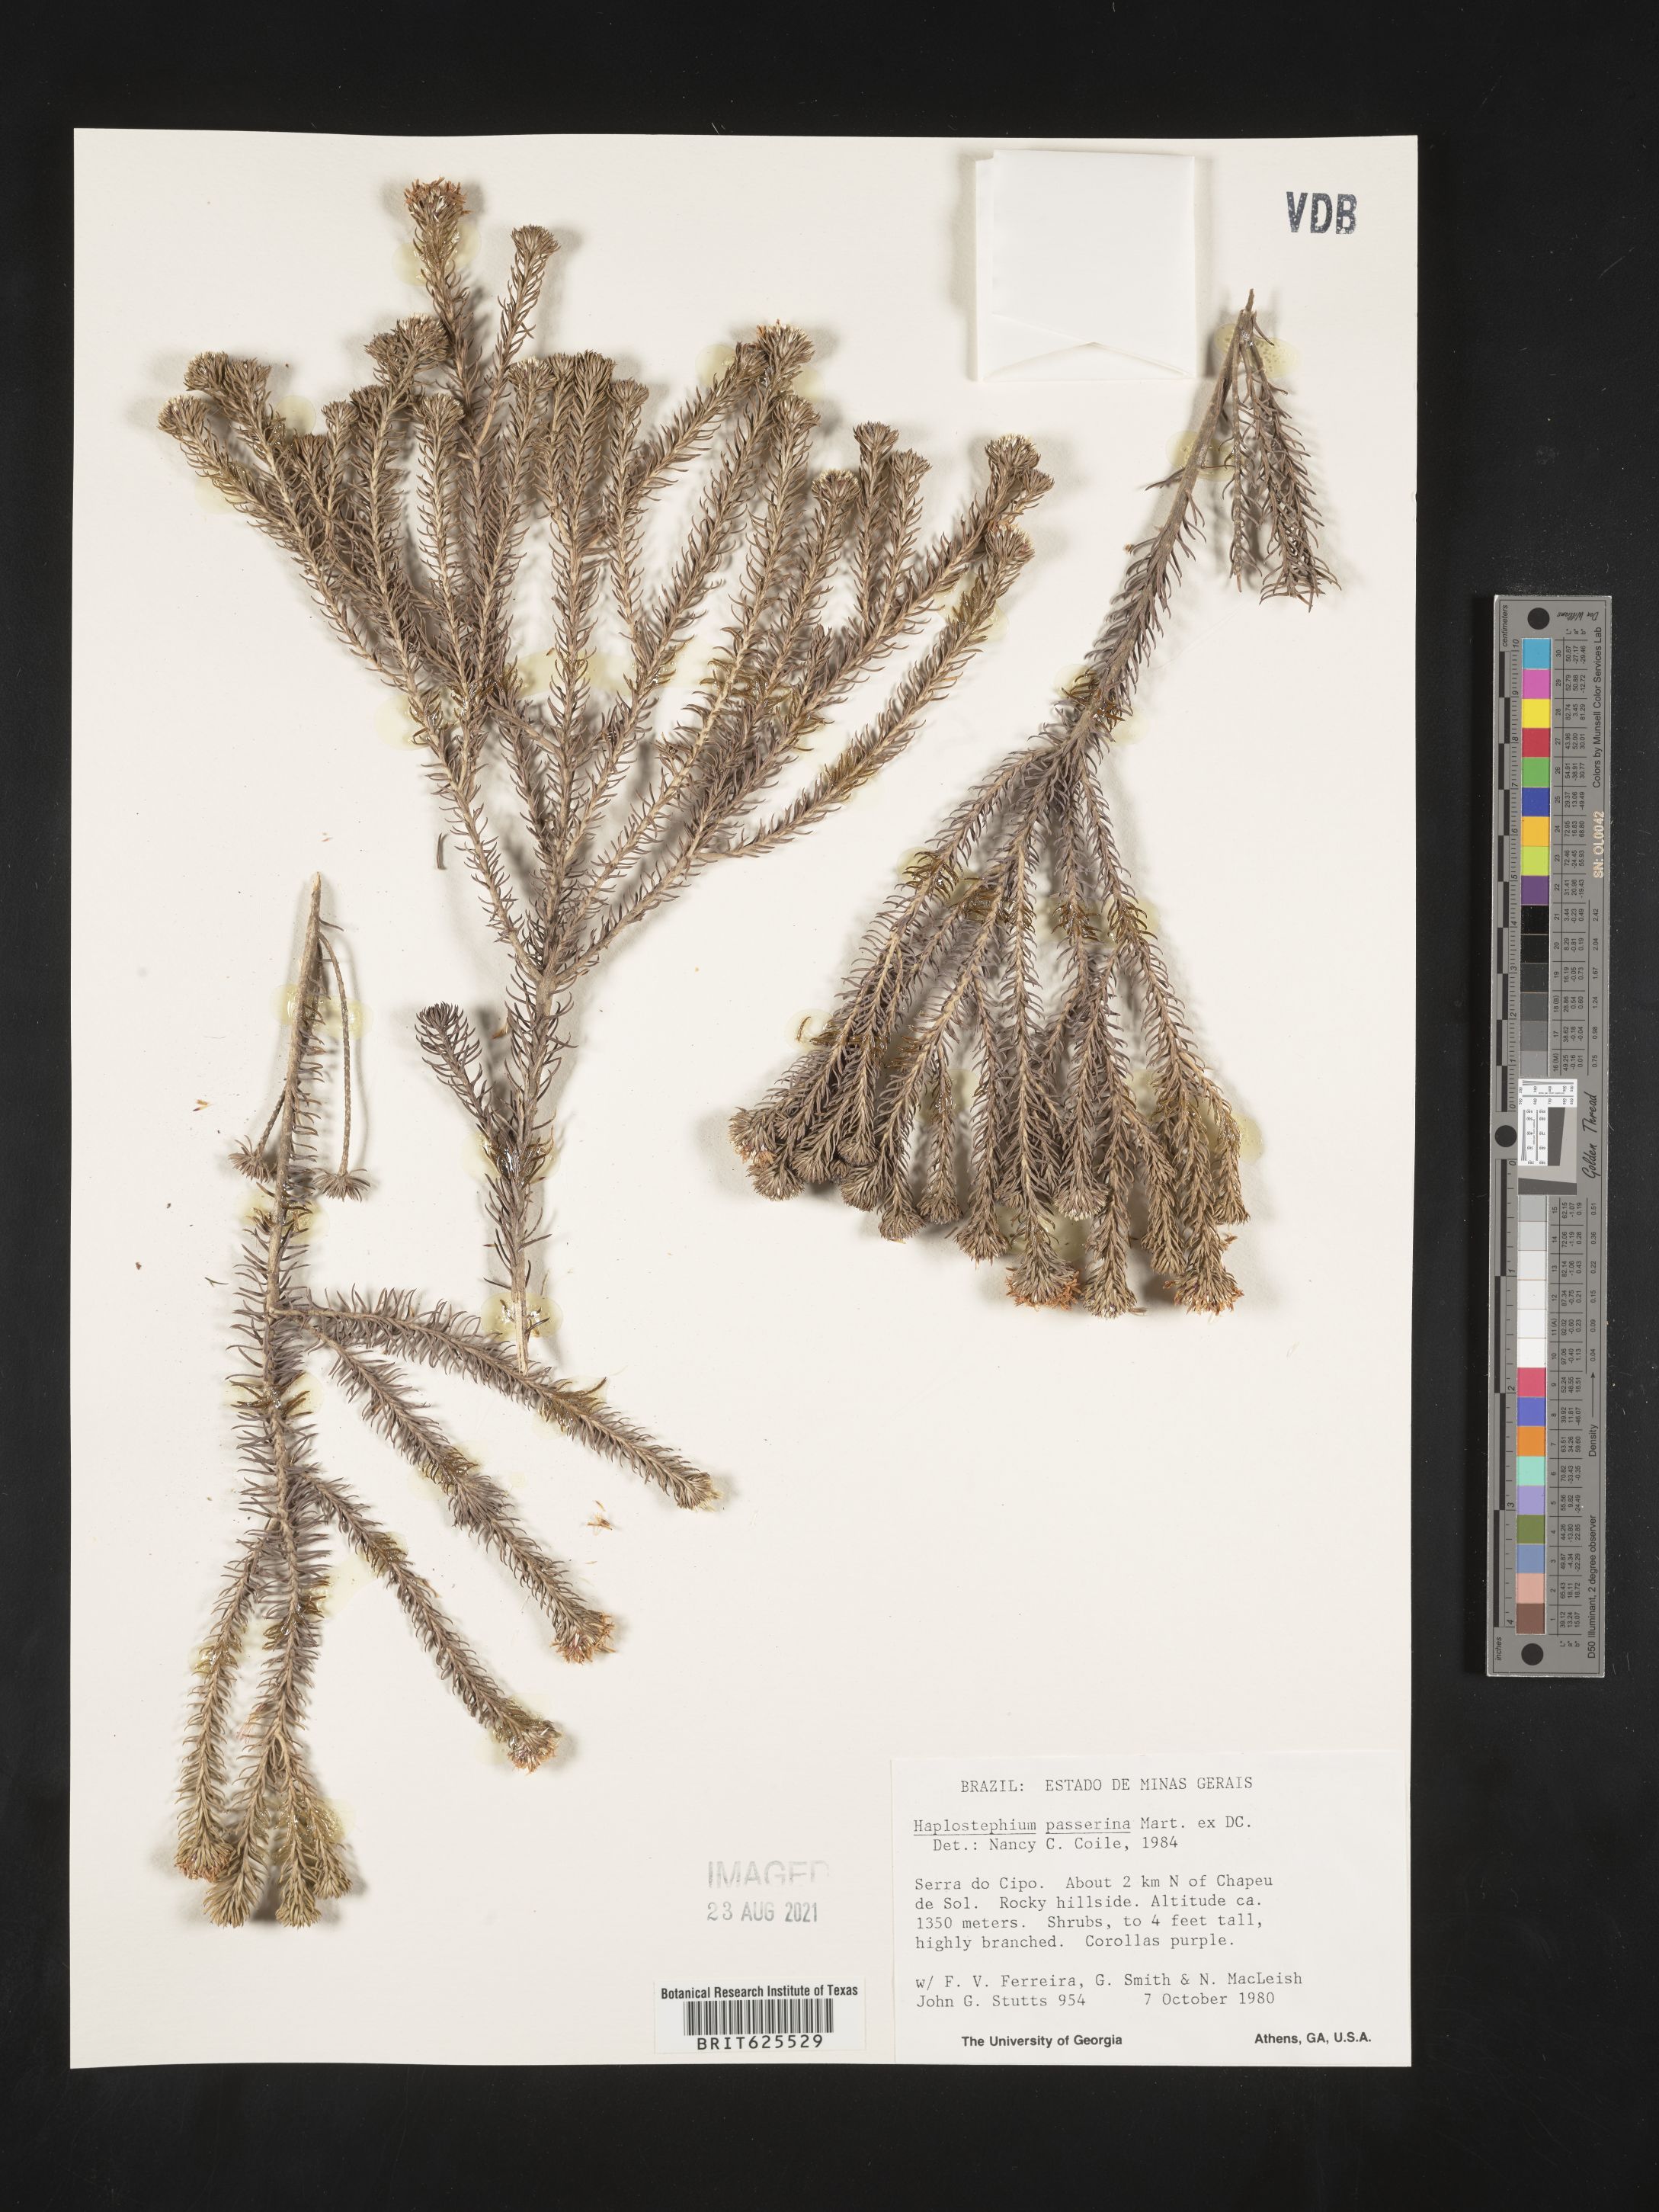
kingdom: Plantae
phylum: Tracheophyta
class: Magnoliopsida
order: Asterales
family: Asteraceae
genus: Lychnophora
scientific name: Lychnophora passerina
